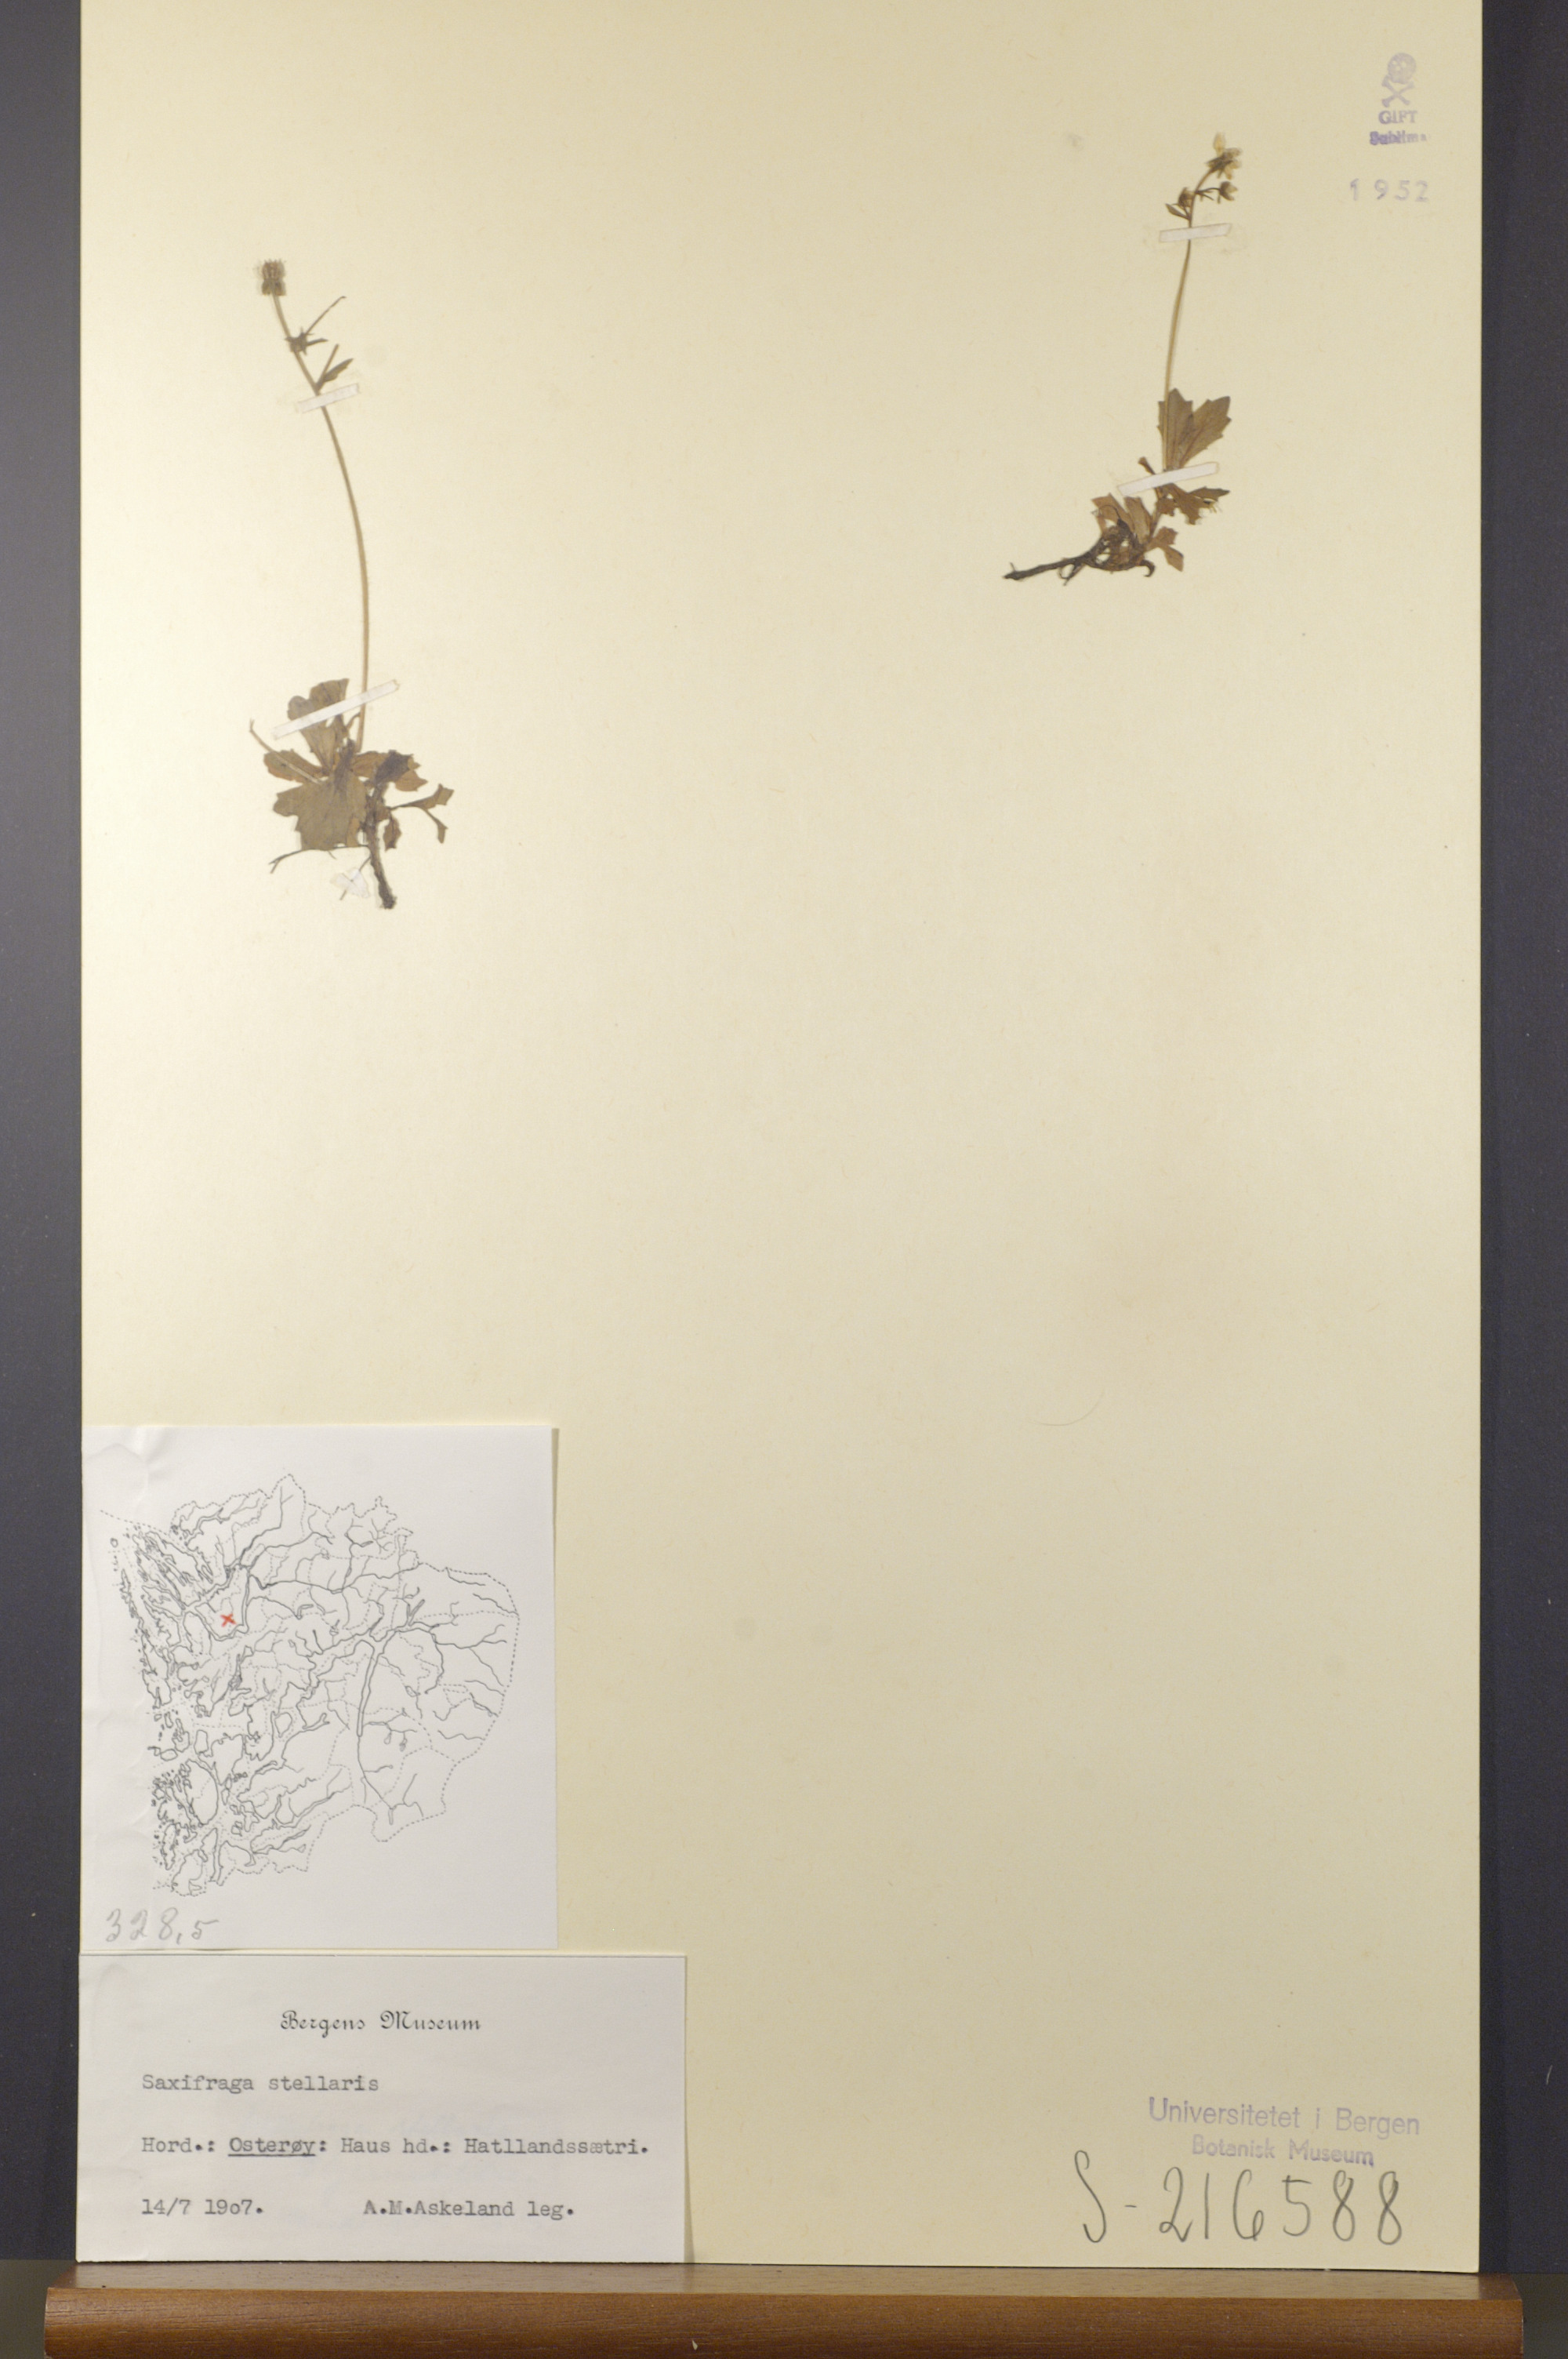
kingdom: Plantae
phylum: Tracheophyta
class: Magnoliopsida
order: Saxifragales
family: Saxifragaceae
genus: Micranthes
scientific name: Micranthes stellaris
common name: Starry saxifrage
